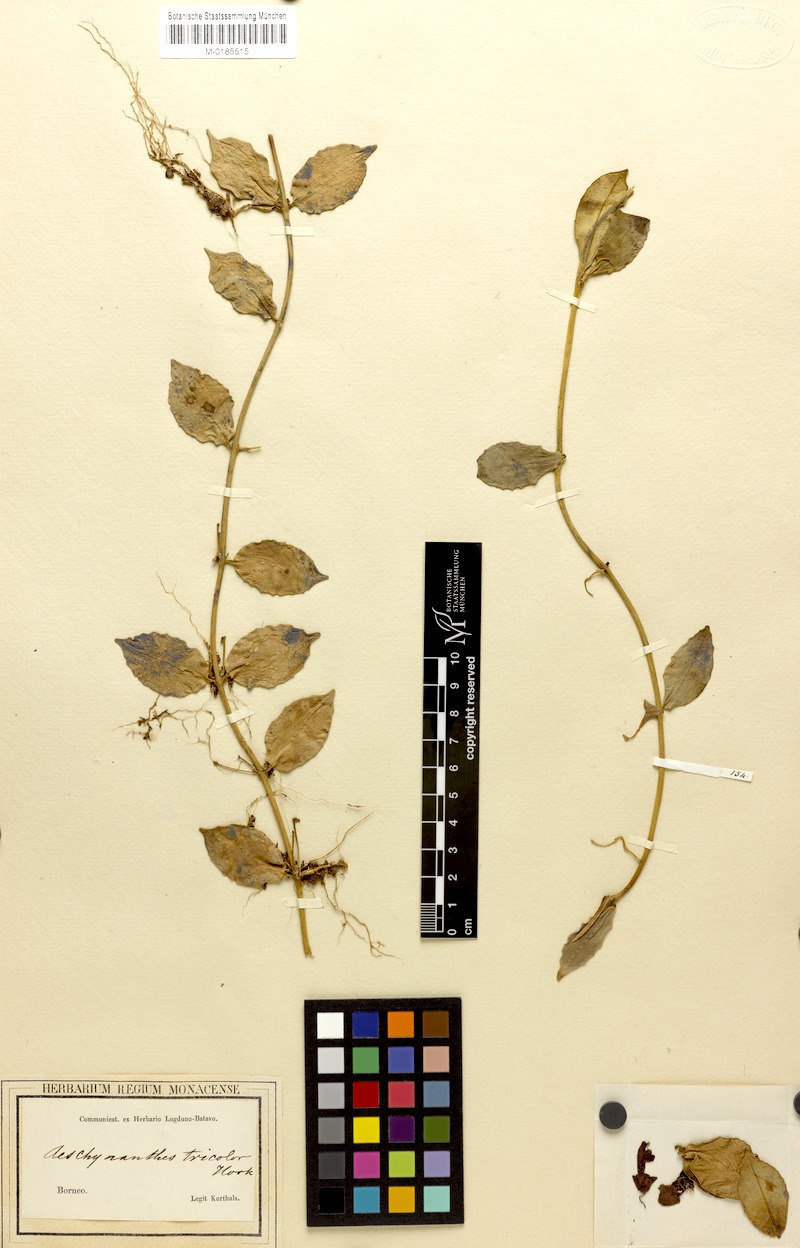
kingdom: Plantae
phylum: Tracheophyta
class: Magnoliopsida
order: Lamiales
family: Gesneriaceae
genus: Aeschynanthus
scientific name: Aeschynanthus tricolor
